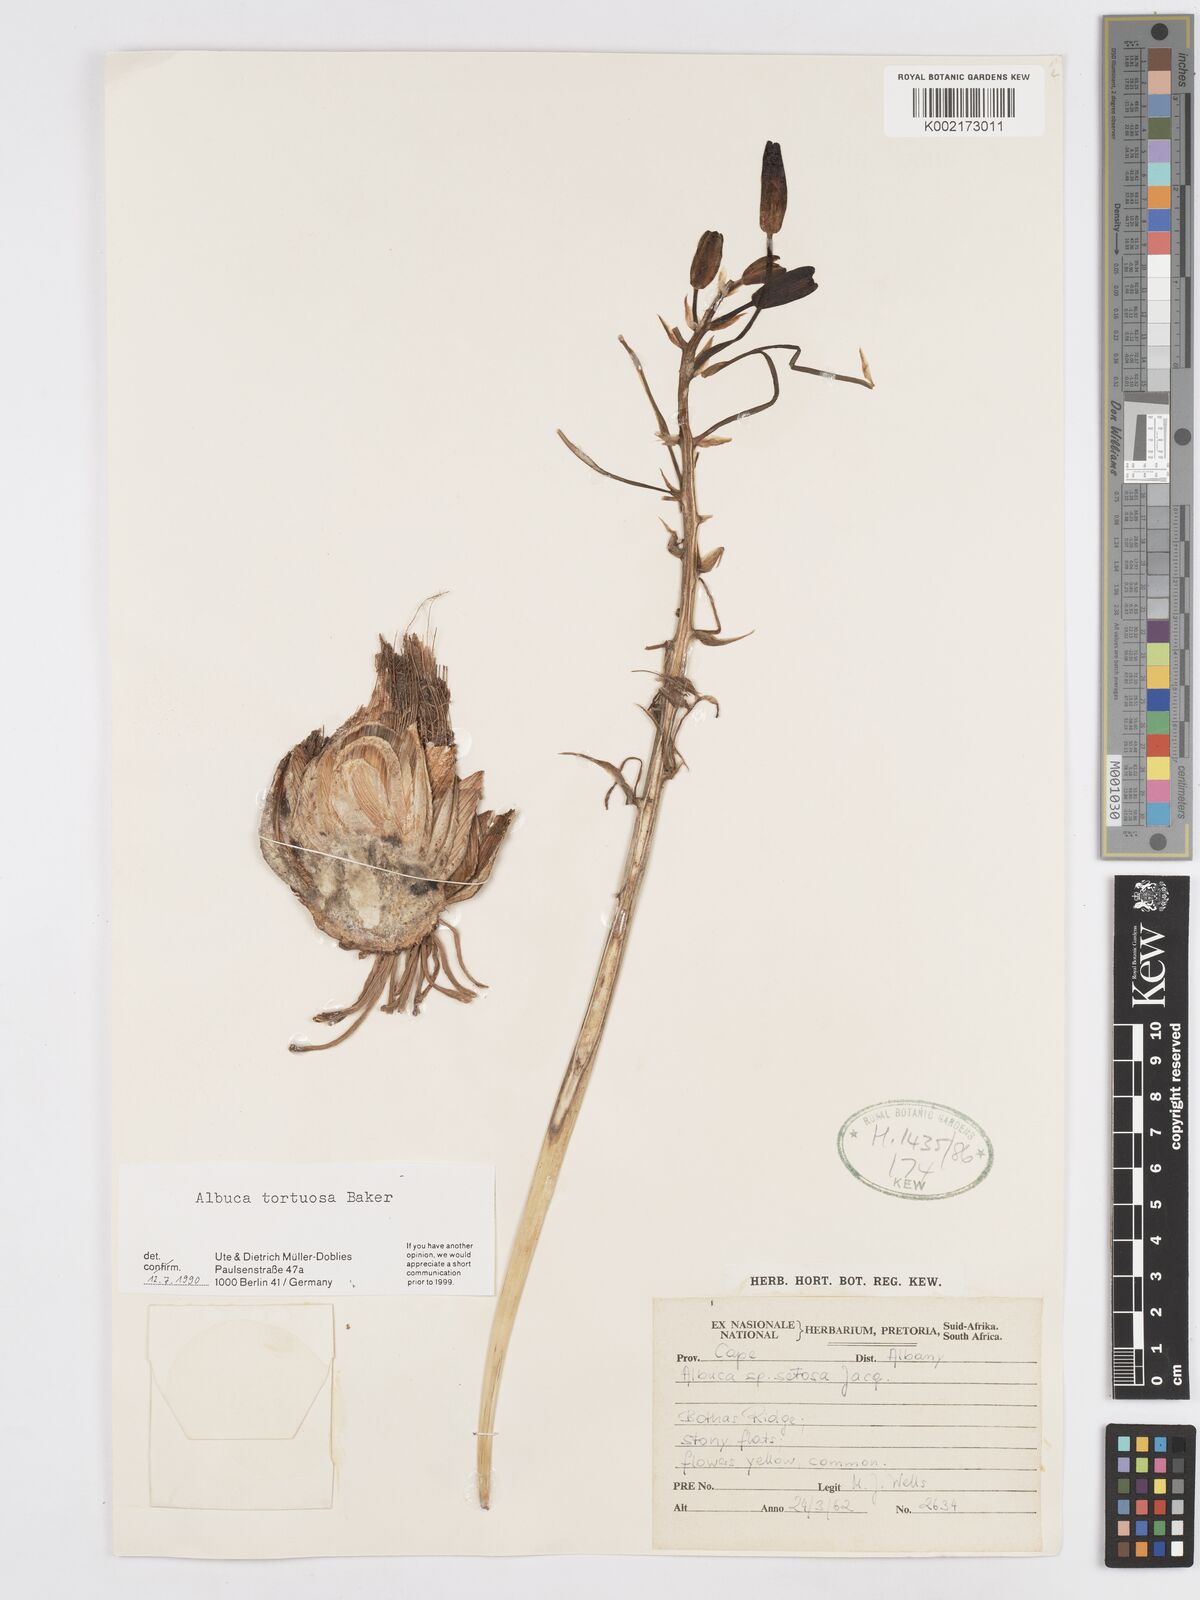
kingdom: Plantae
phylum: Tracheophyta
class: Liliopsida
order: Asparagales
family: Asparagaceae
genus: Albuca
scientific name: Albuca tortuosa
